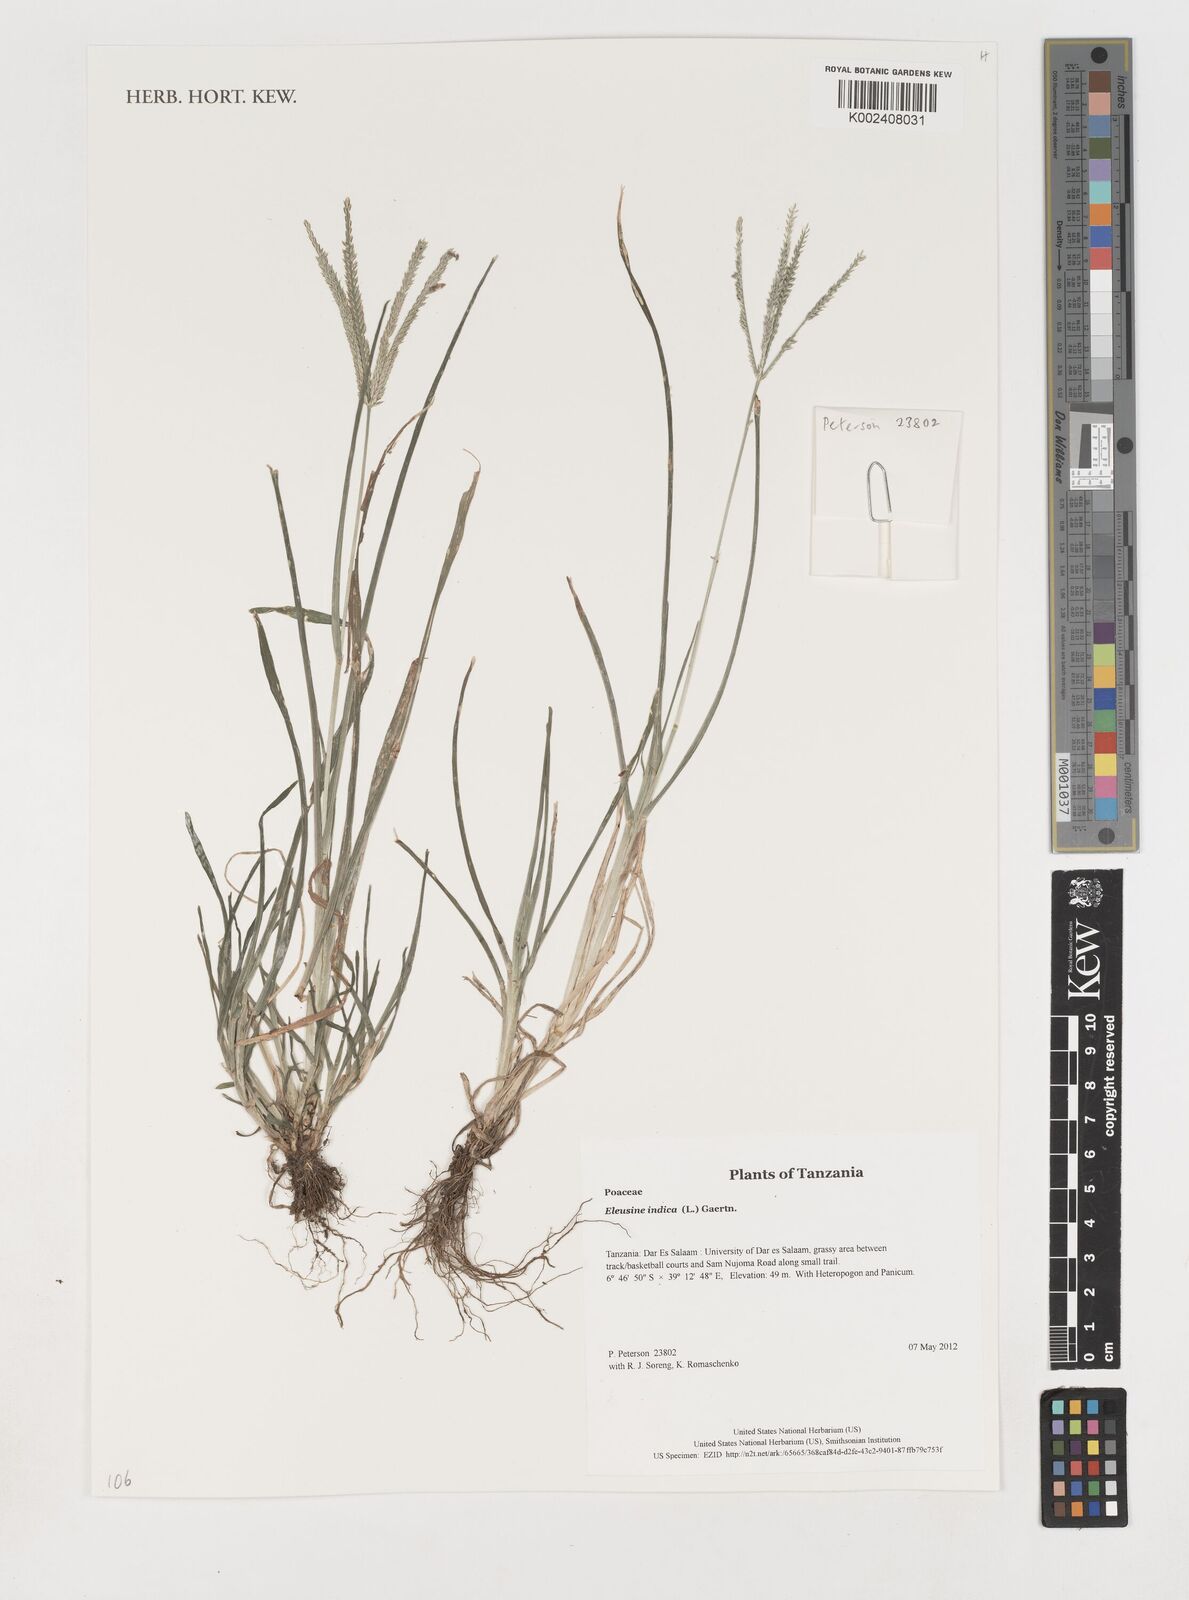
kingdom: Plantae
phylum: Tracheophyta
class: Liliopsida
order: Poales
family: Poaceae
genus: Eleusine
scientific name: Eleusine indica
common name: Yard-grass
